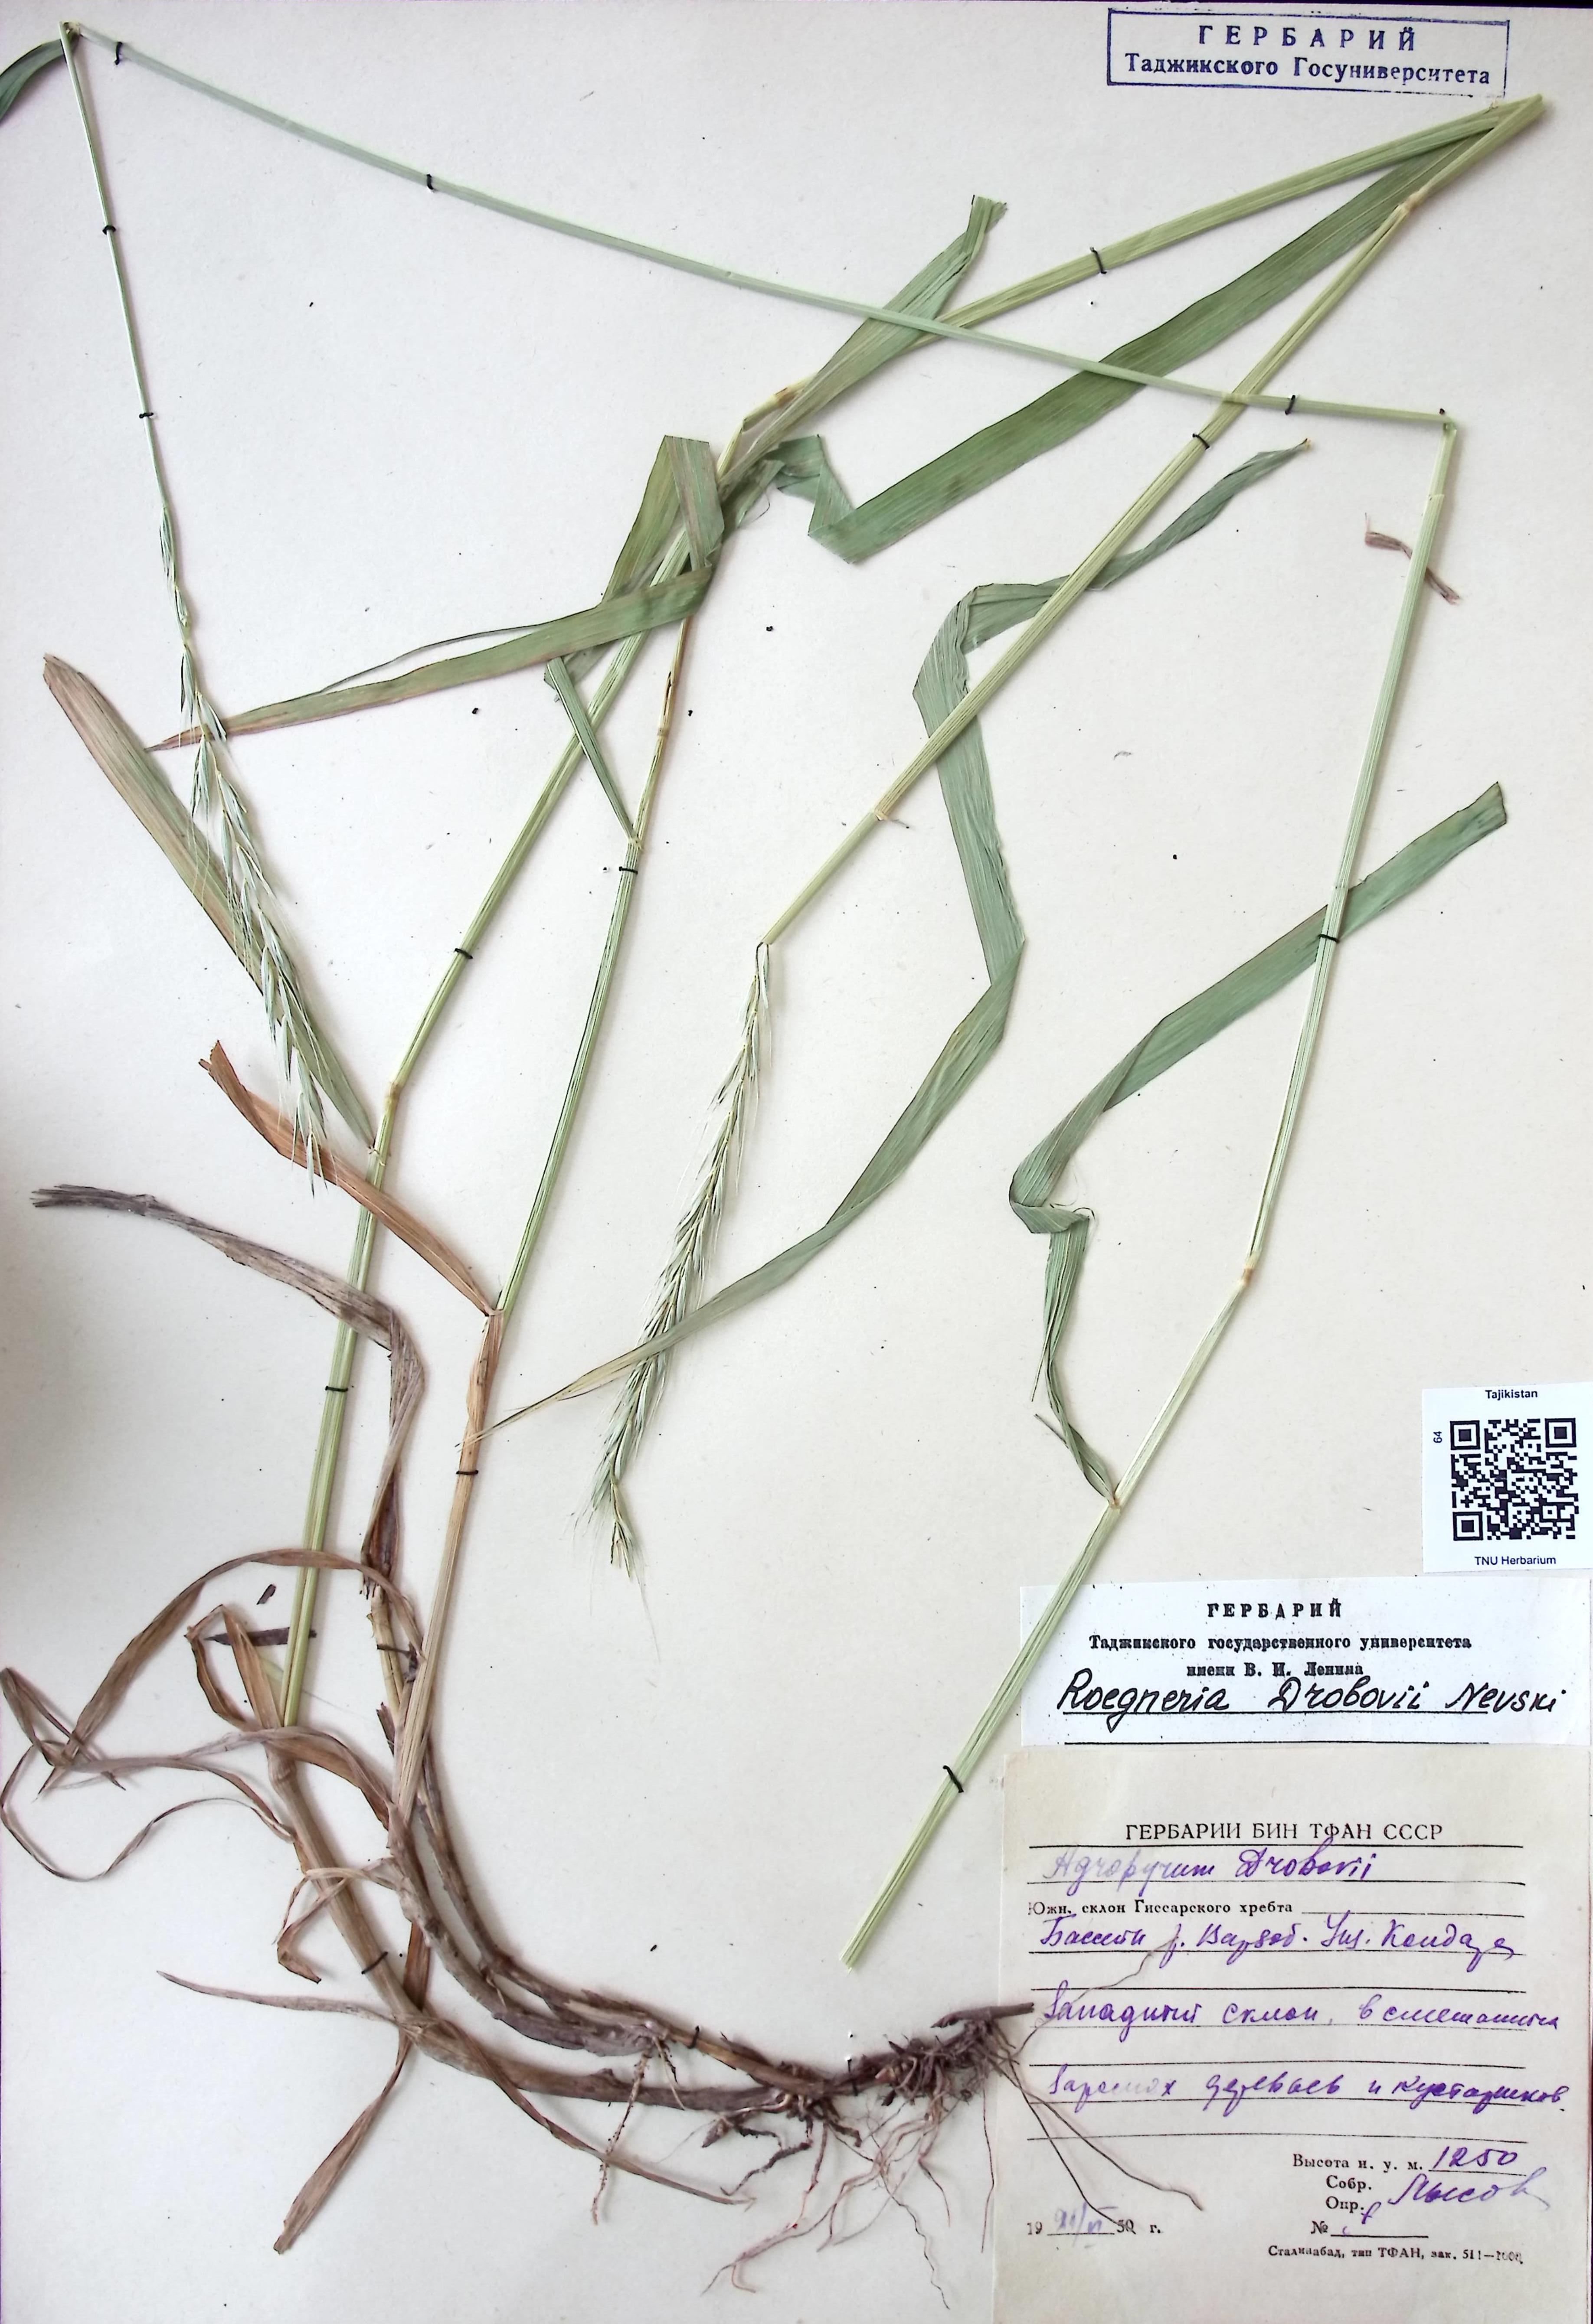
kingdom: Plantae
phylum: Tracheophyta
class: Liliopsida
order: Poales
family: Poaceae
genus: Roegeria
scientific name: Roegeria
